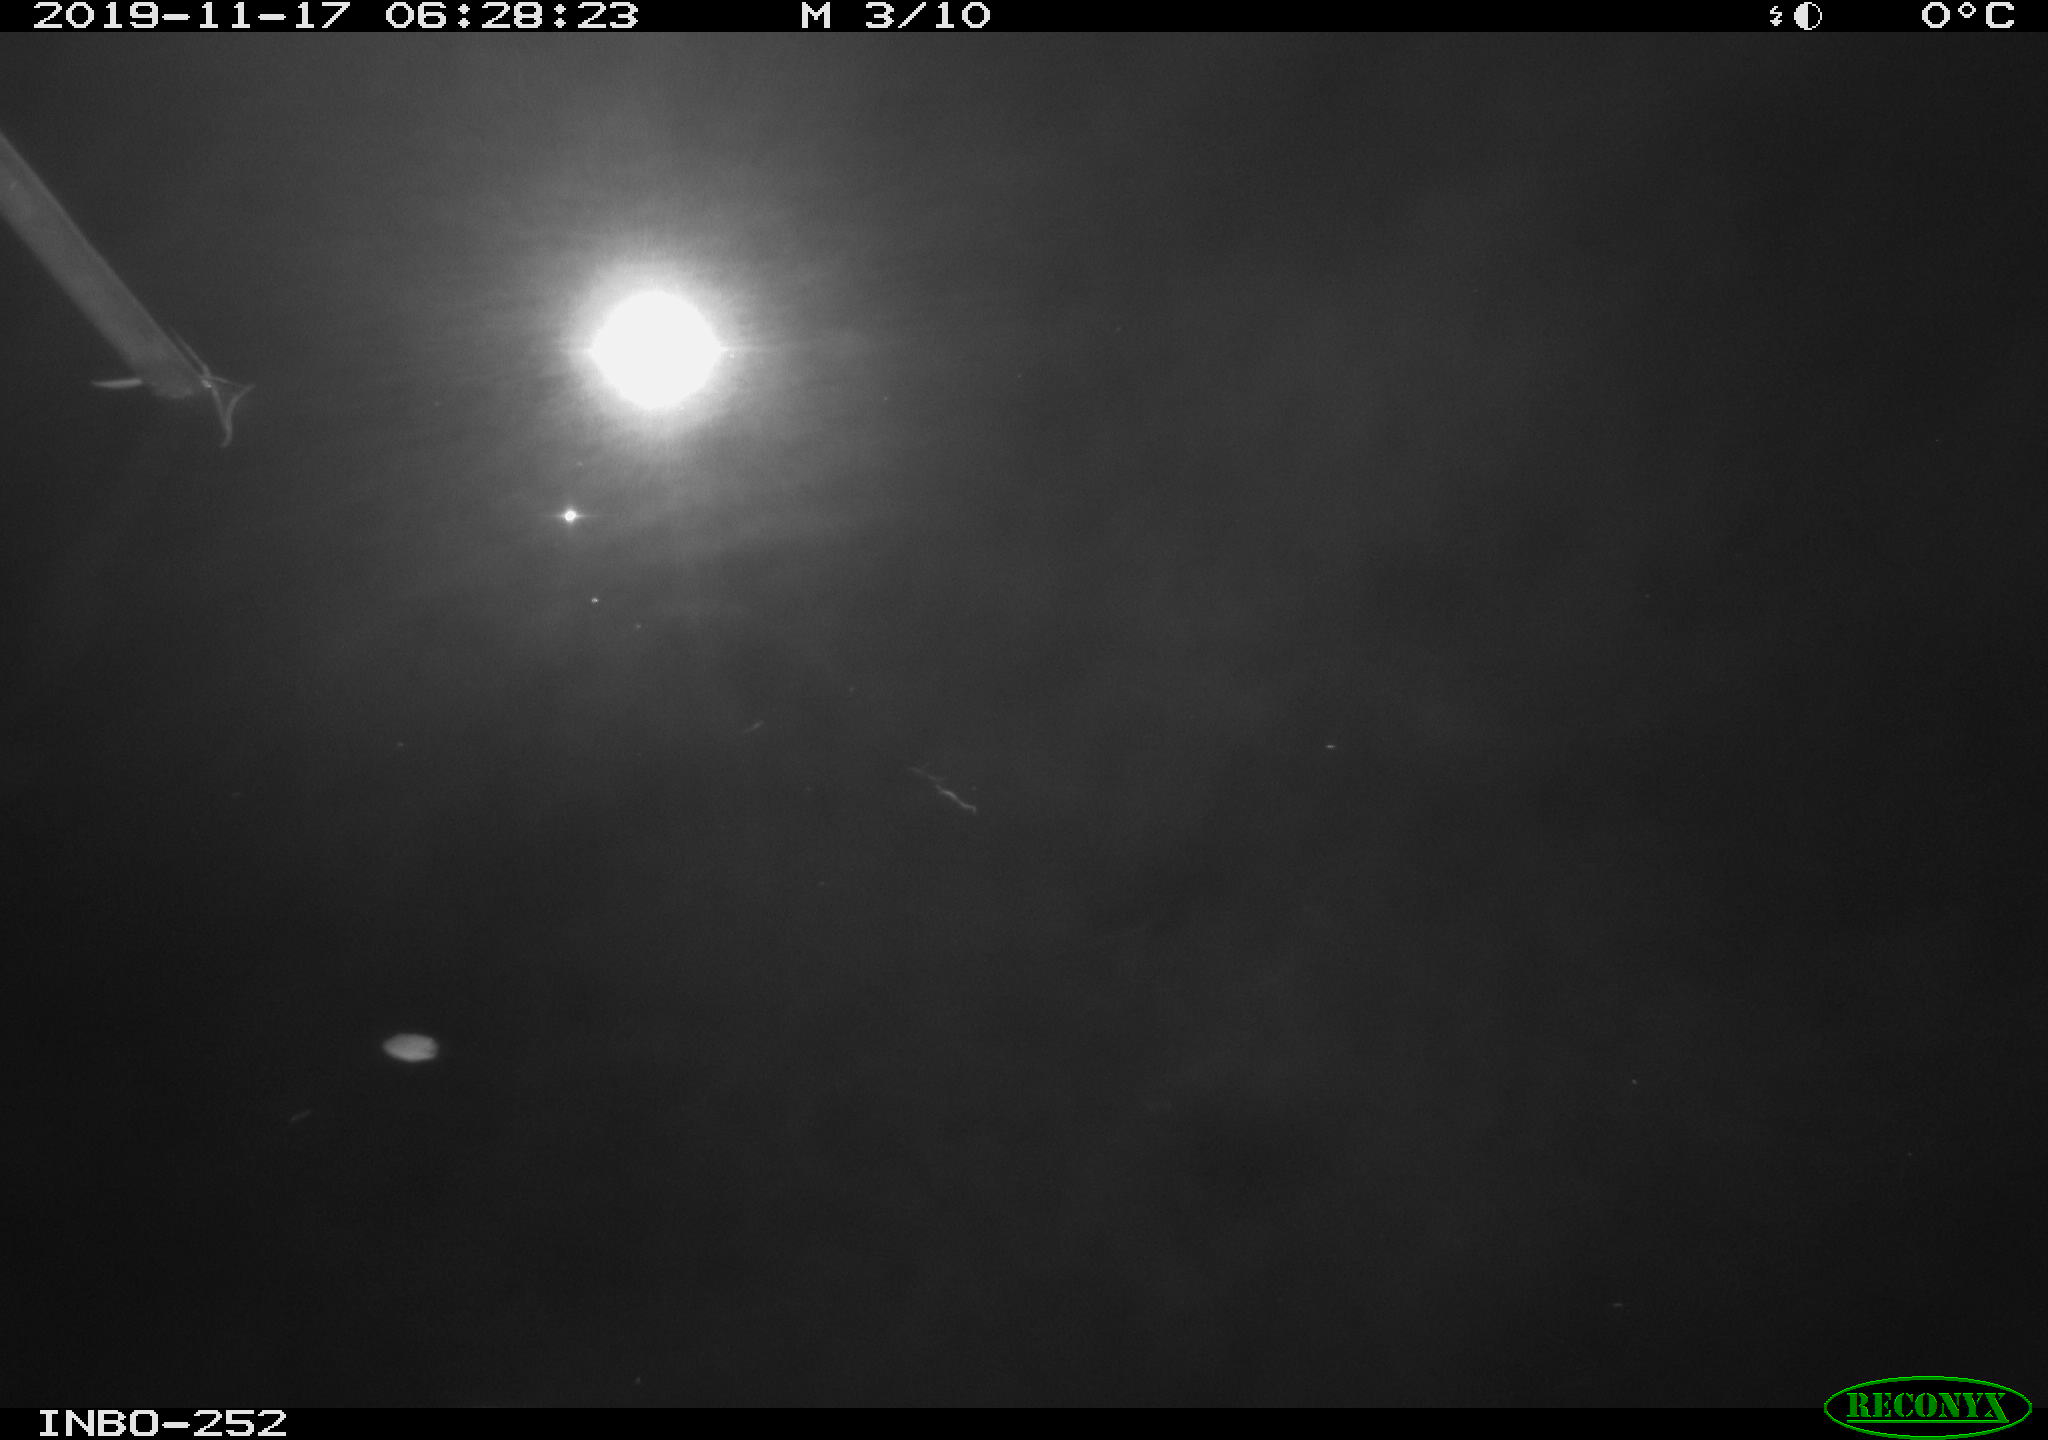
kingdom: Animalia
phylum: Chordata
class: Aves
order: Anseriformes
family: Anatidae
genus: Anas
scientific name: Anas platyrhynchos
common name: Mallard
